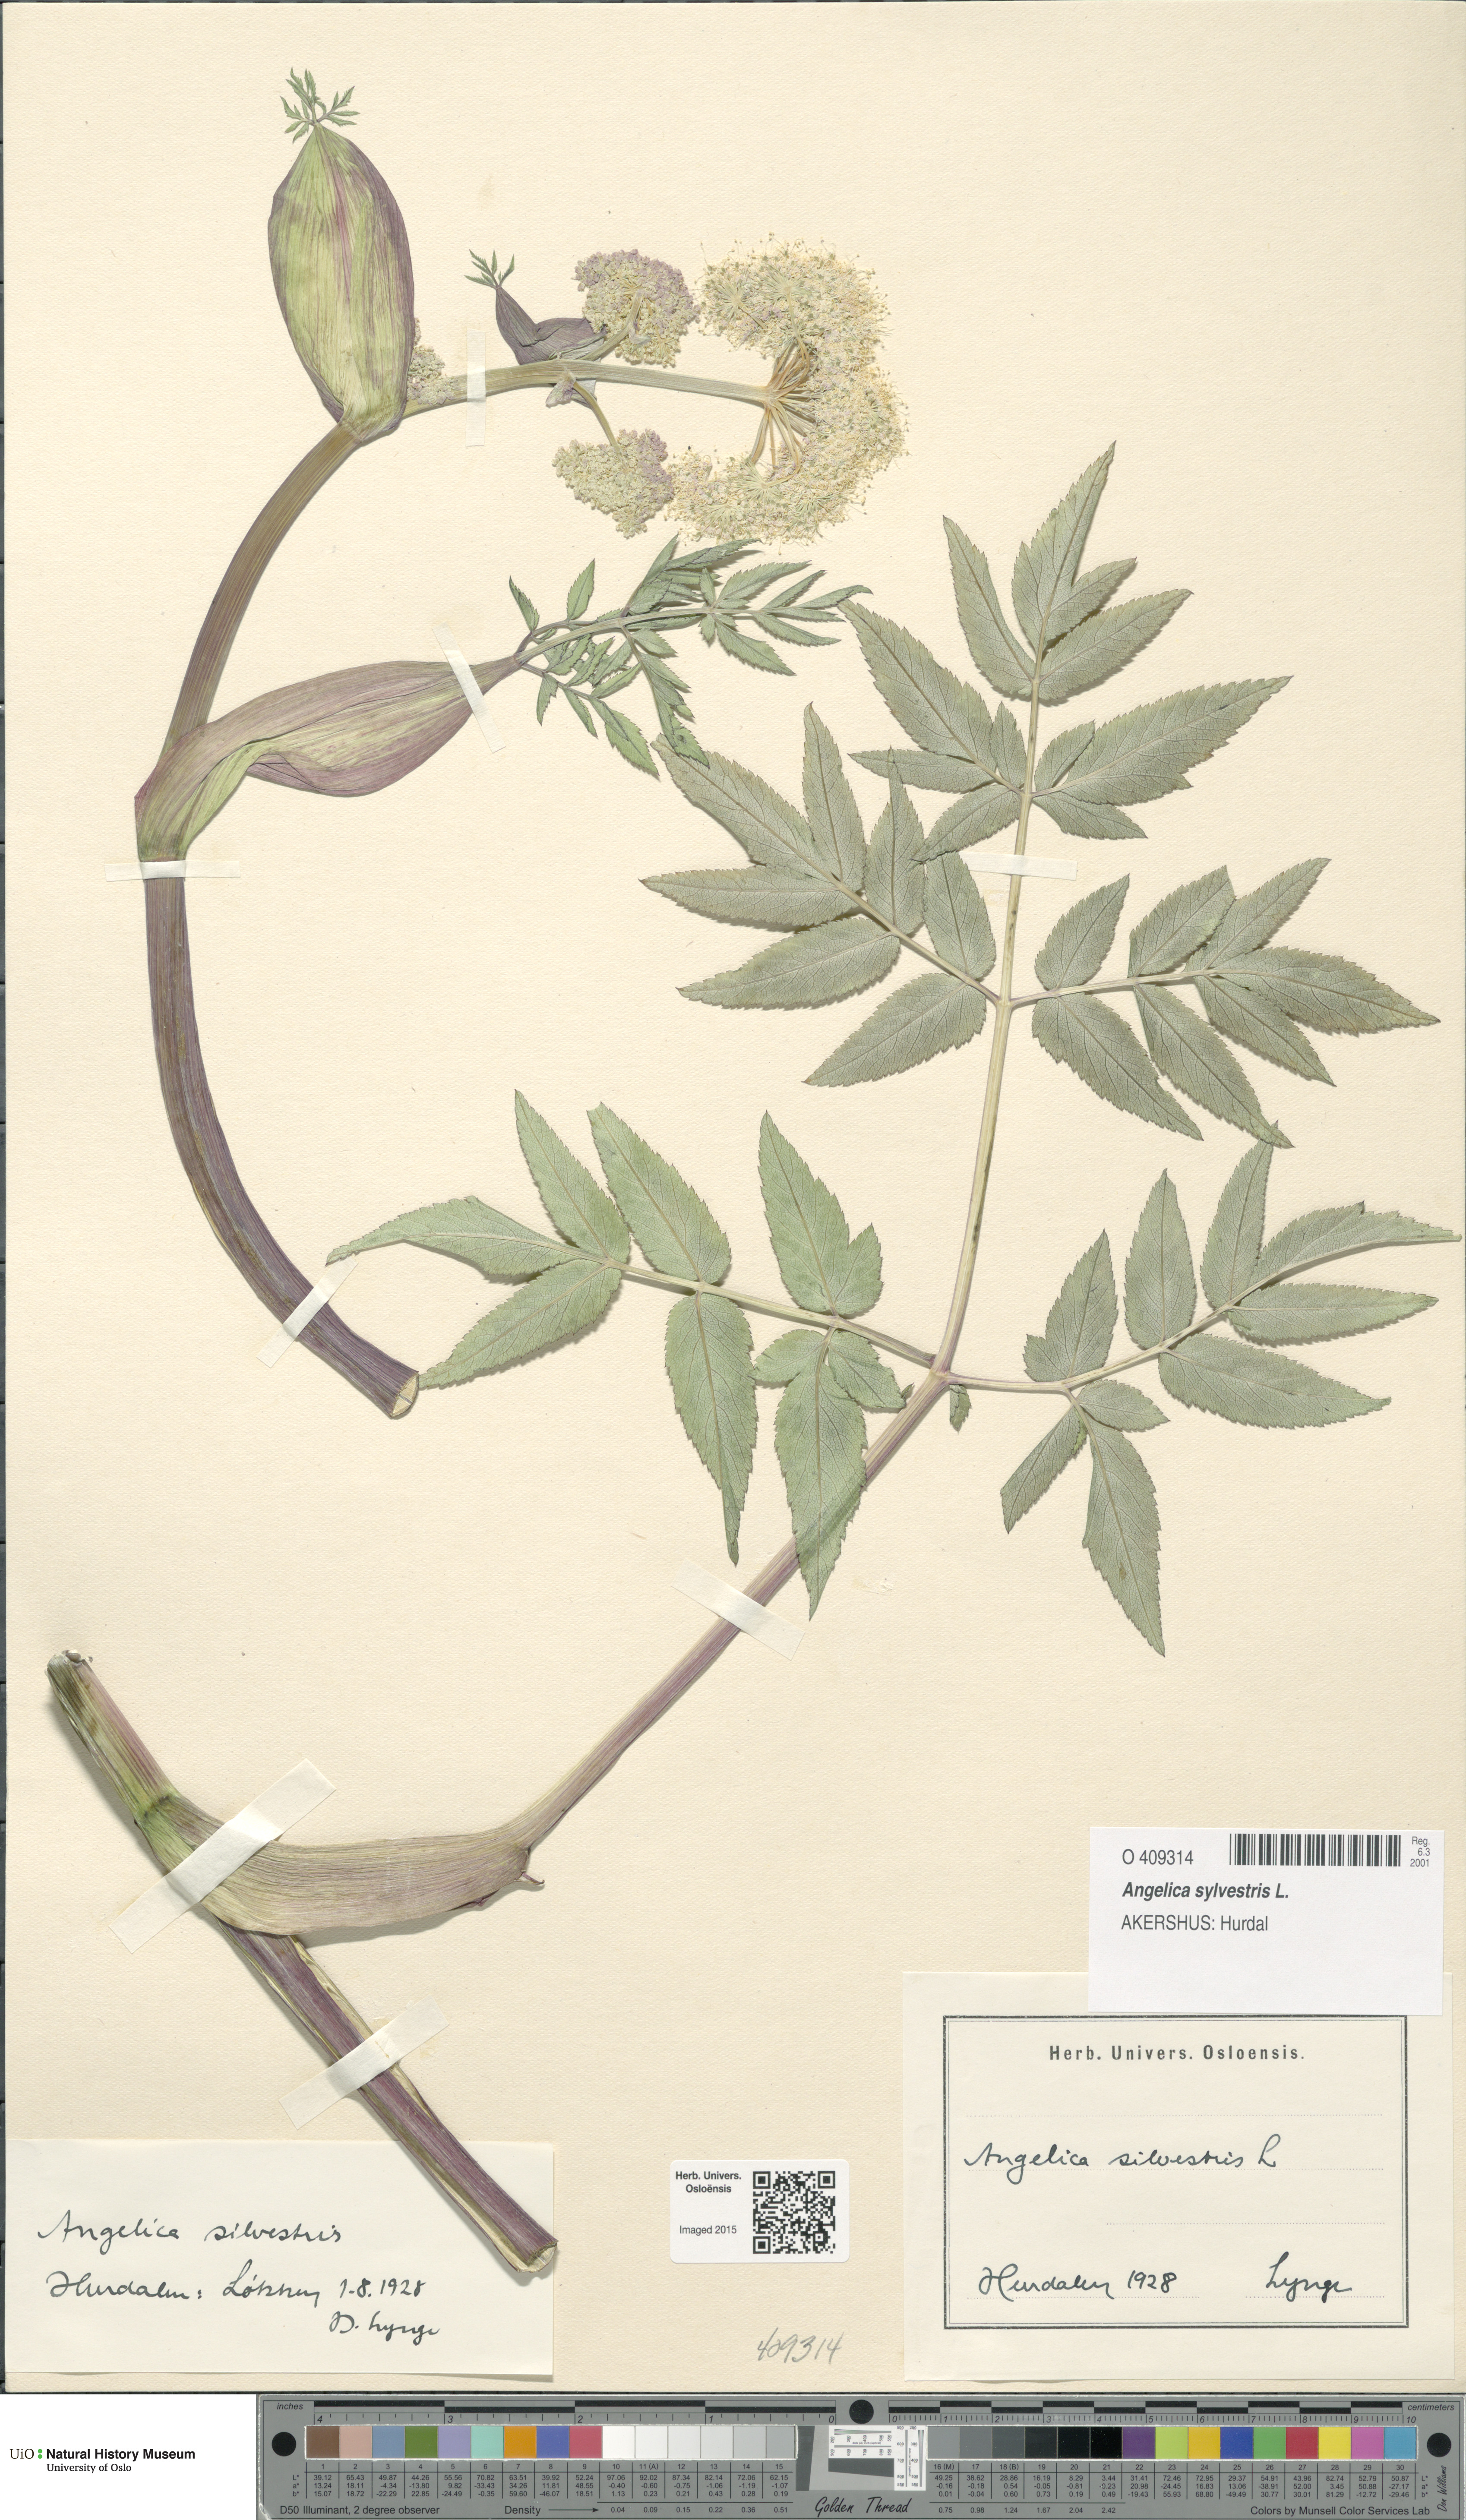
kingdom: Plantae
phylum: Tracheophyta
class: Magnoliopsida
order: Apiales
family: Apiaceae
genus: Angelica
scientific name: Angelica sylvestris
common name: Wild angelica
